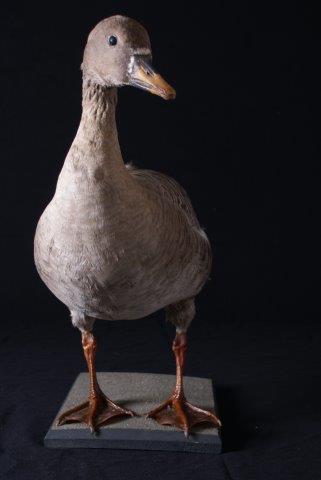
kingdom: Animalia
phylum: Chordata
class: Aves
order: Anseriformes
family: Anatidae
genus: Anser
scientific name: Anser fabalis
